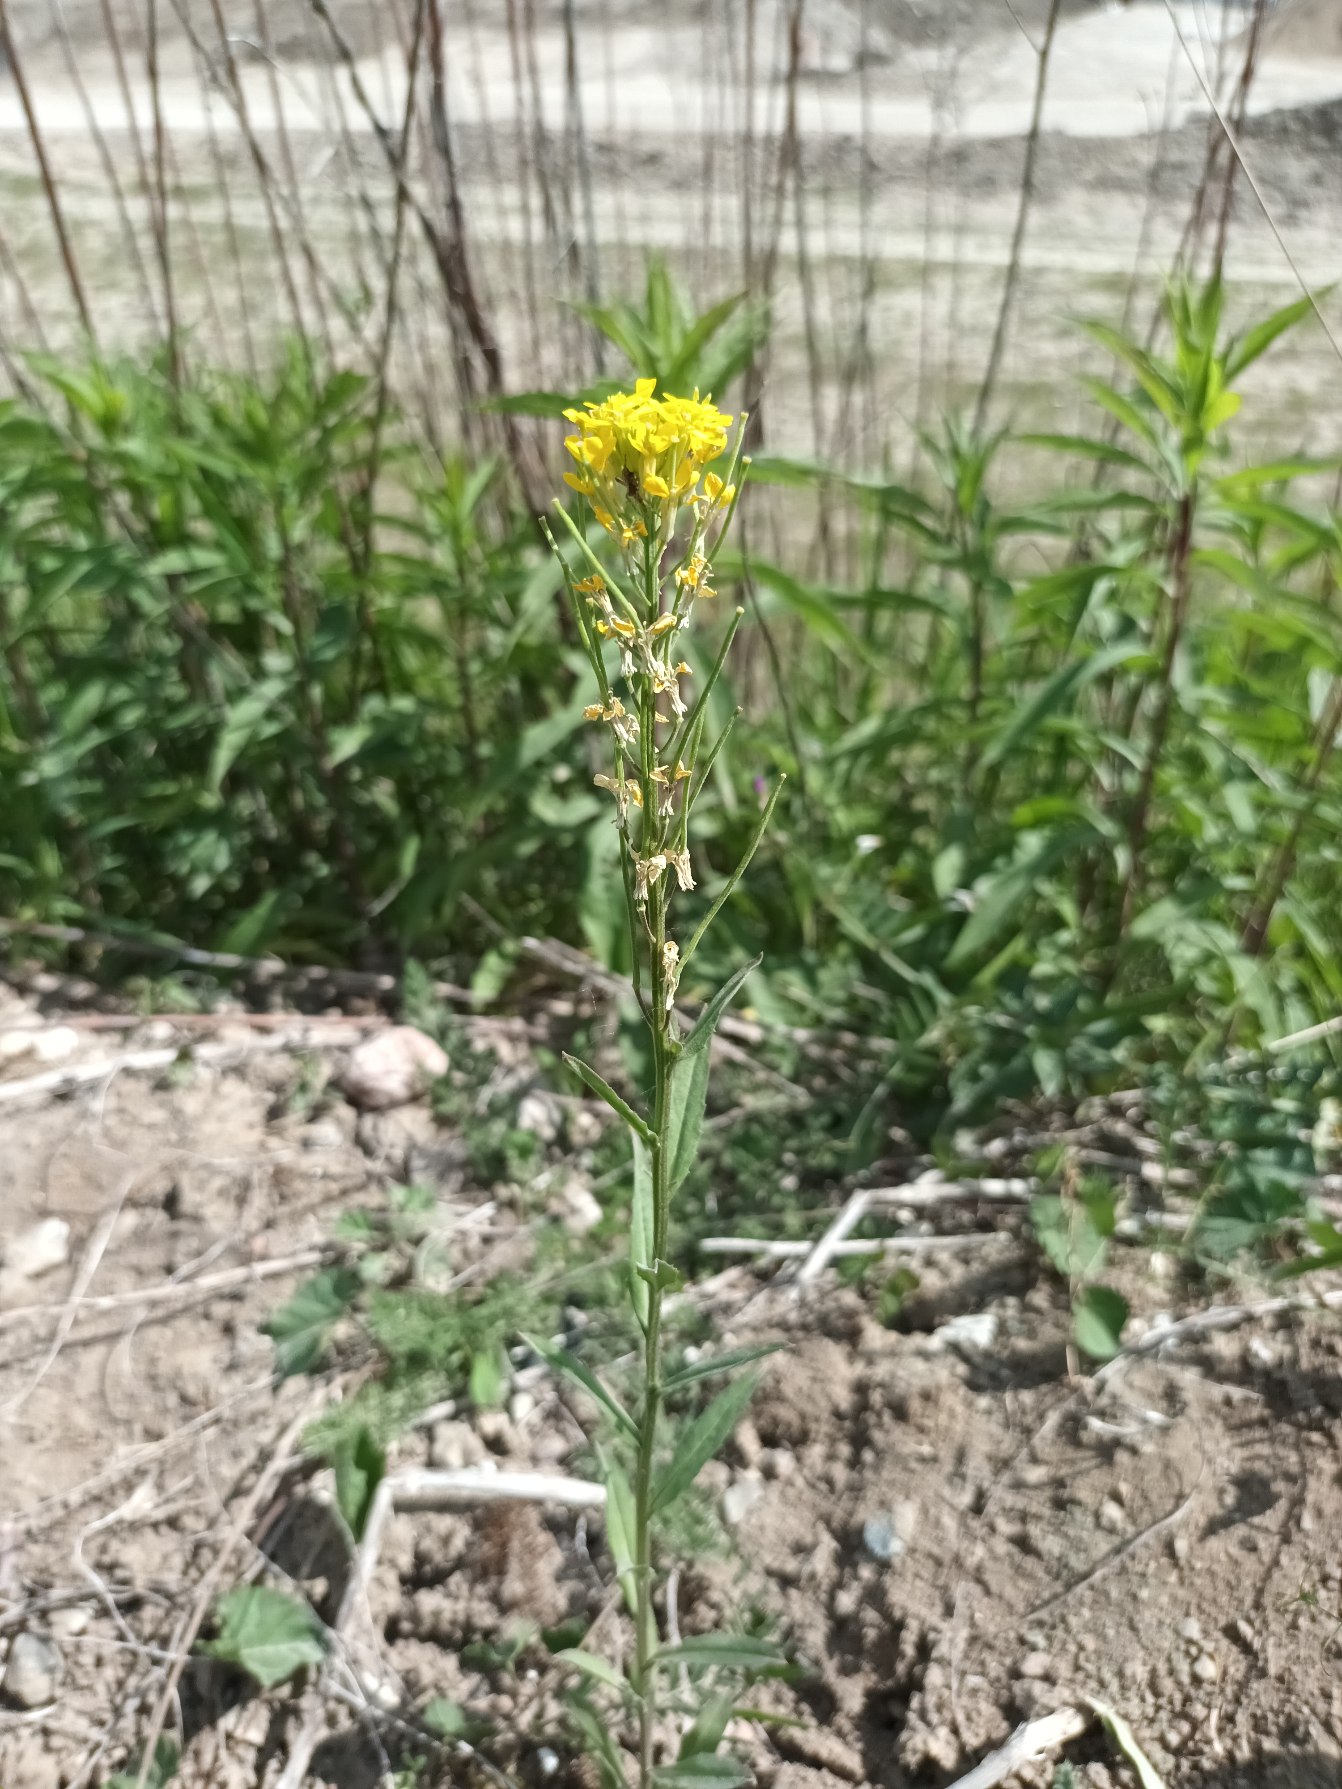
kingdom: Plantae
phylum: Tracheophyta
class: Magnoliopsida
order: Brassicales
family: Brassicaceae
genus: Erysimum
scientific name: Erysimum strictum
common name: Rank hjørneklap
